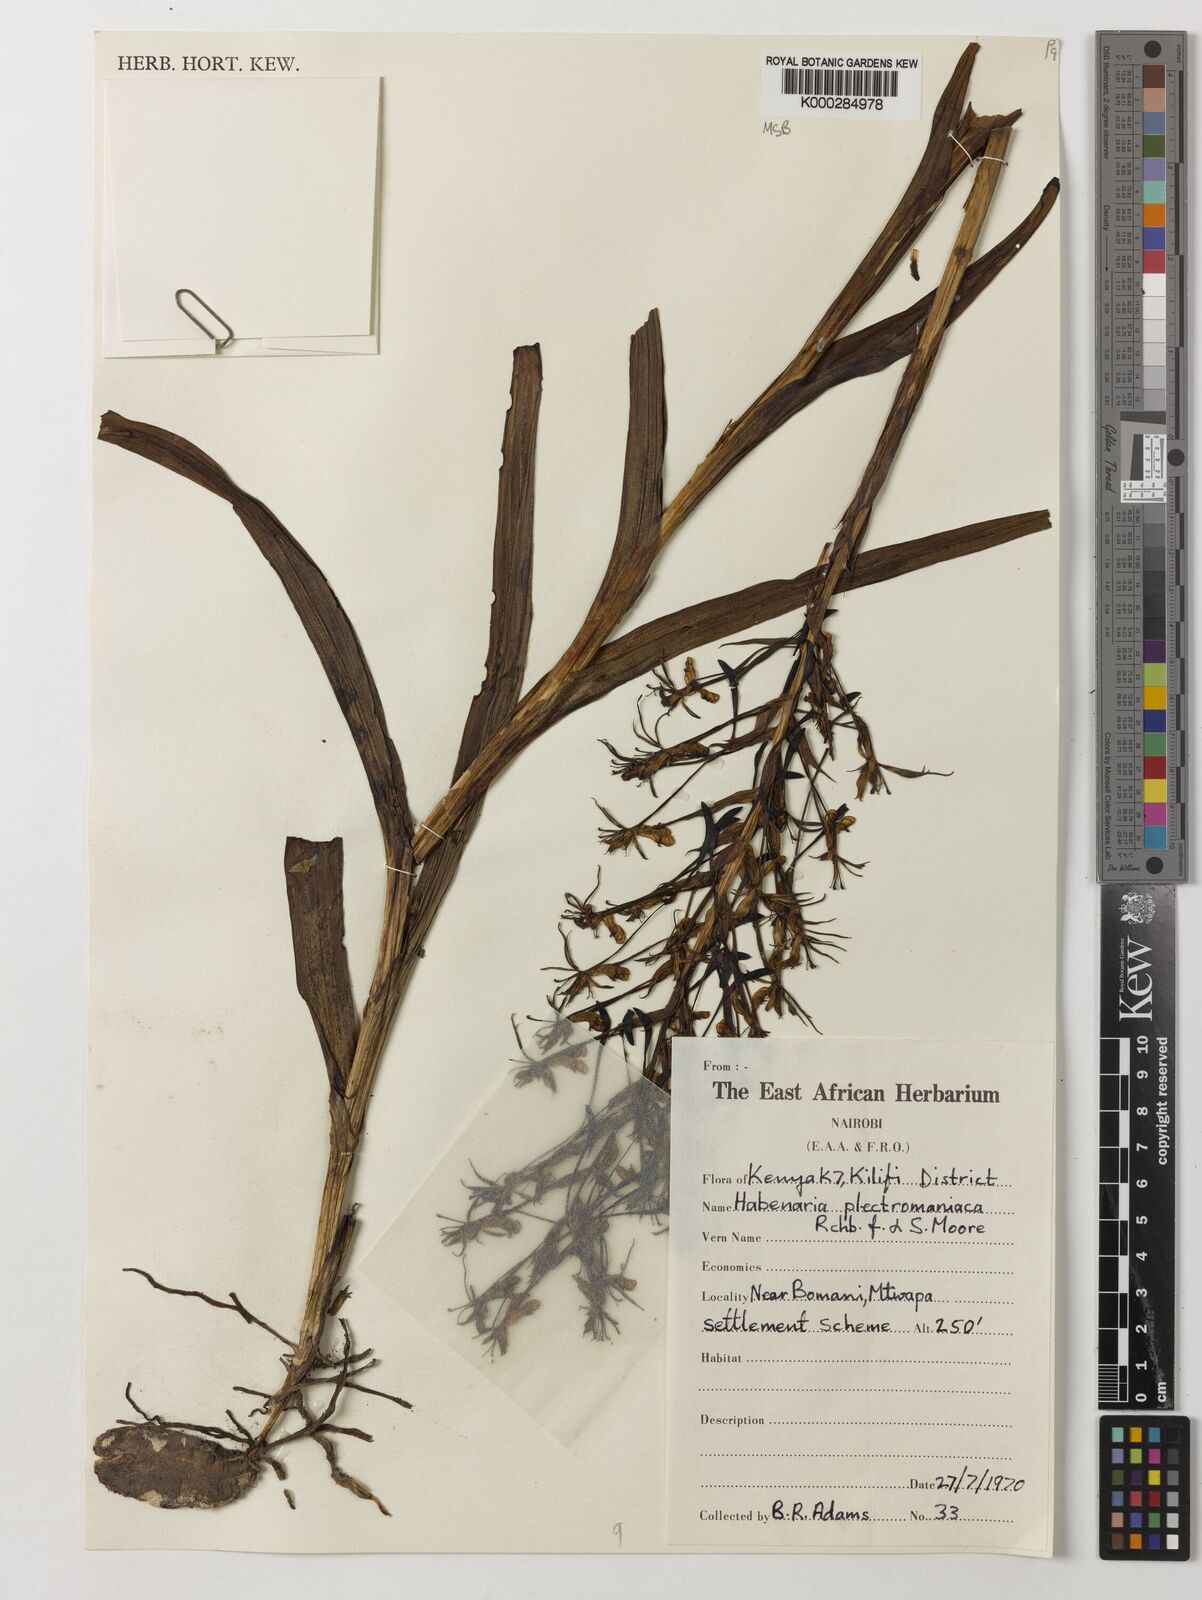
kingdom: Plantae
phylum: Tracheophyta
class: Liliopsida
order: Asparagales
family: Orchidaceae
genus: Habenaria
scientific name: Habenaria plectromaniaca
